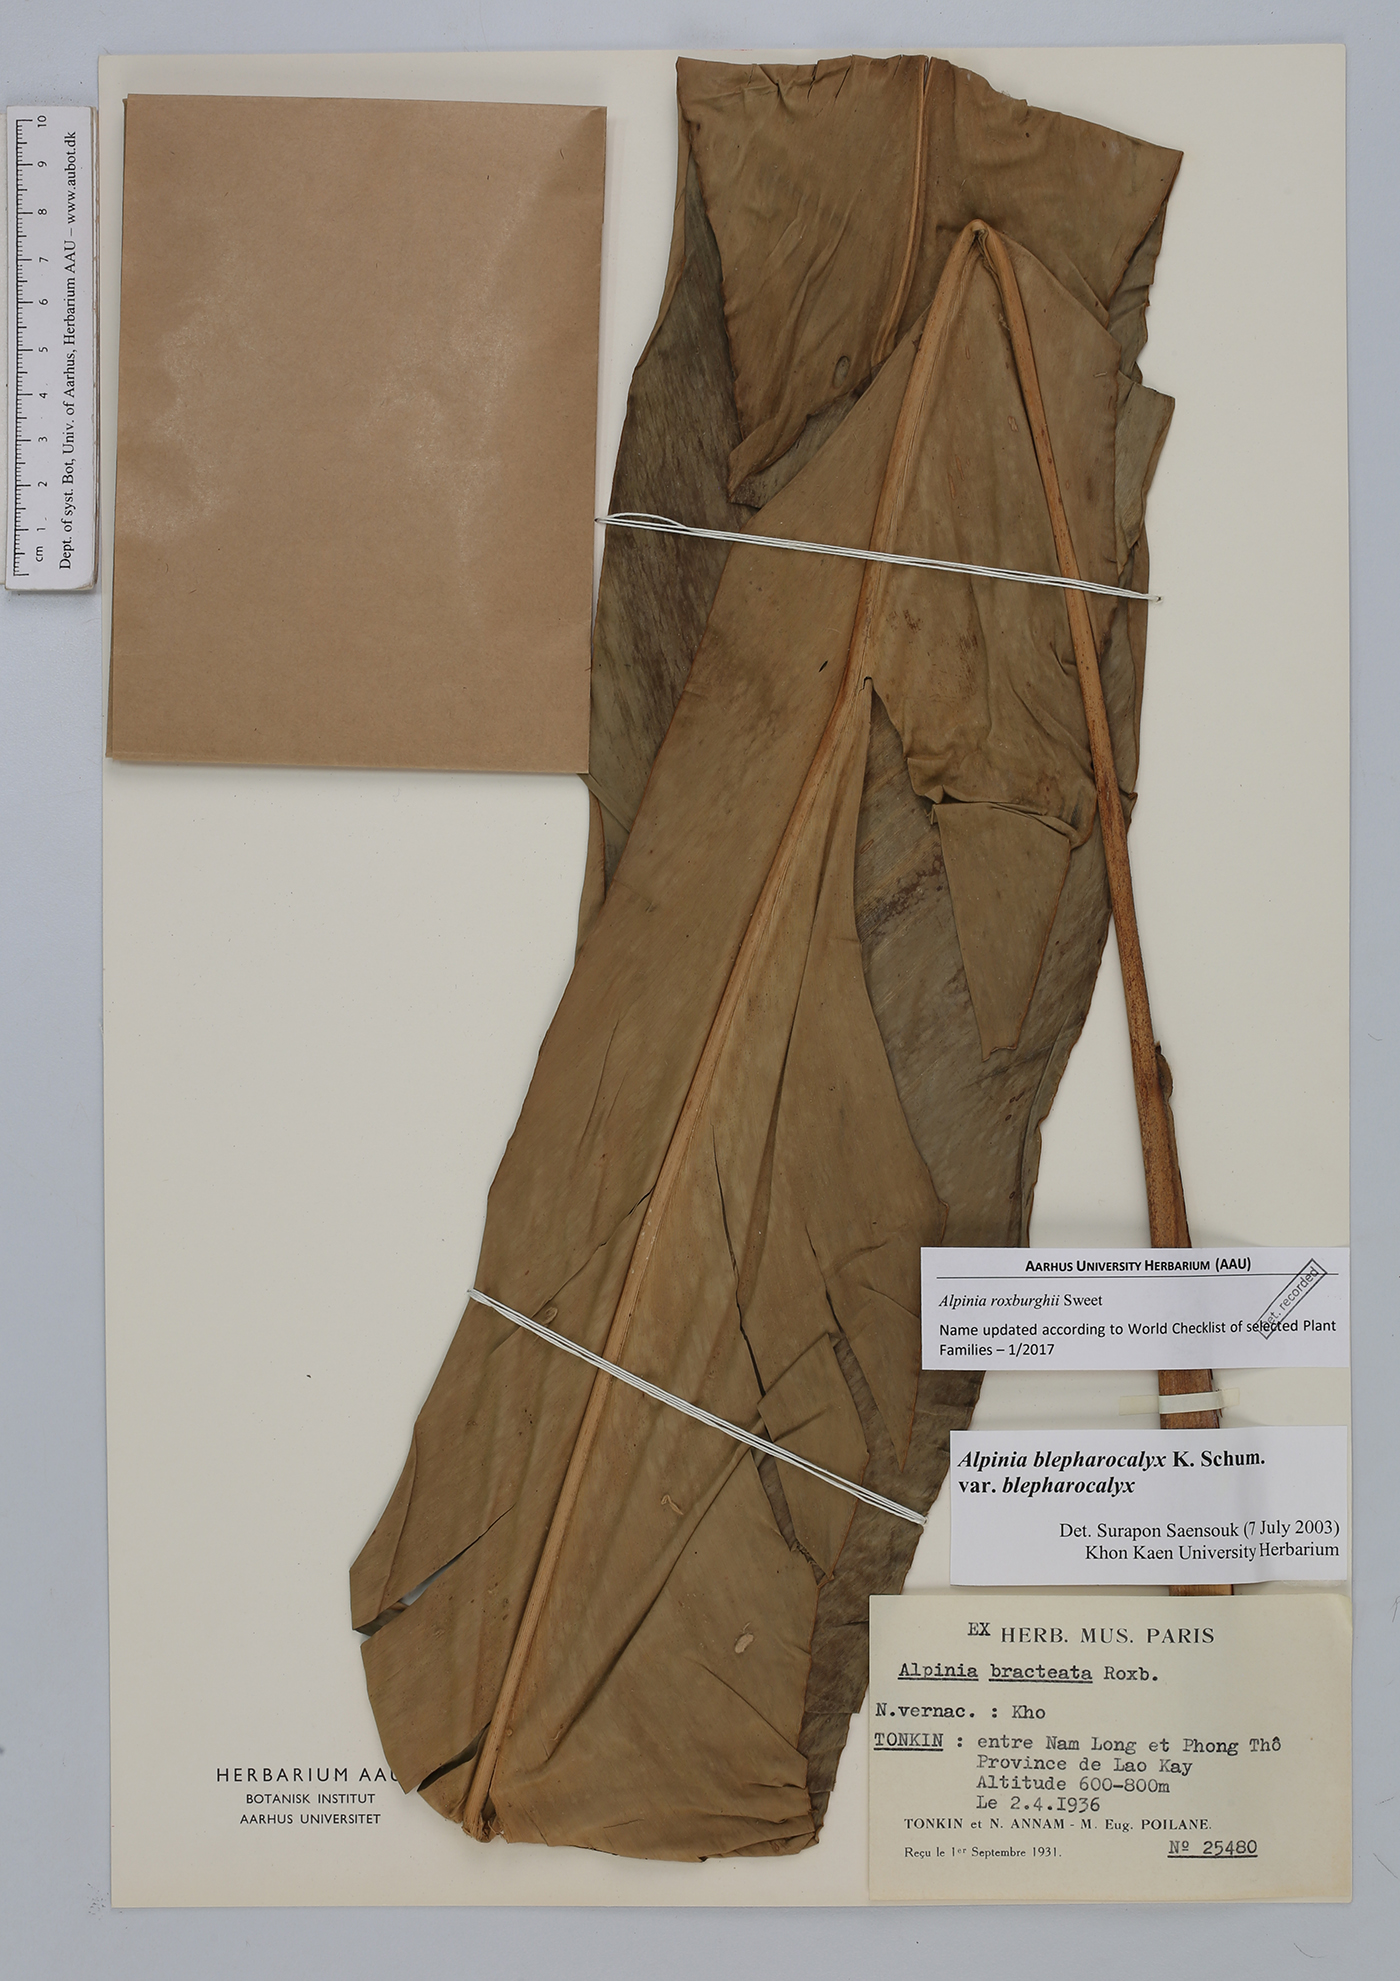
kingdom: Plantae
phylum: Tracheophyta
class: Liliopsida
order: Zingiberales
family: Zingiberaceae
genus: Alpinia
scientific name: Alpinia roxburghii
